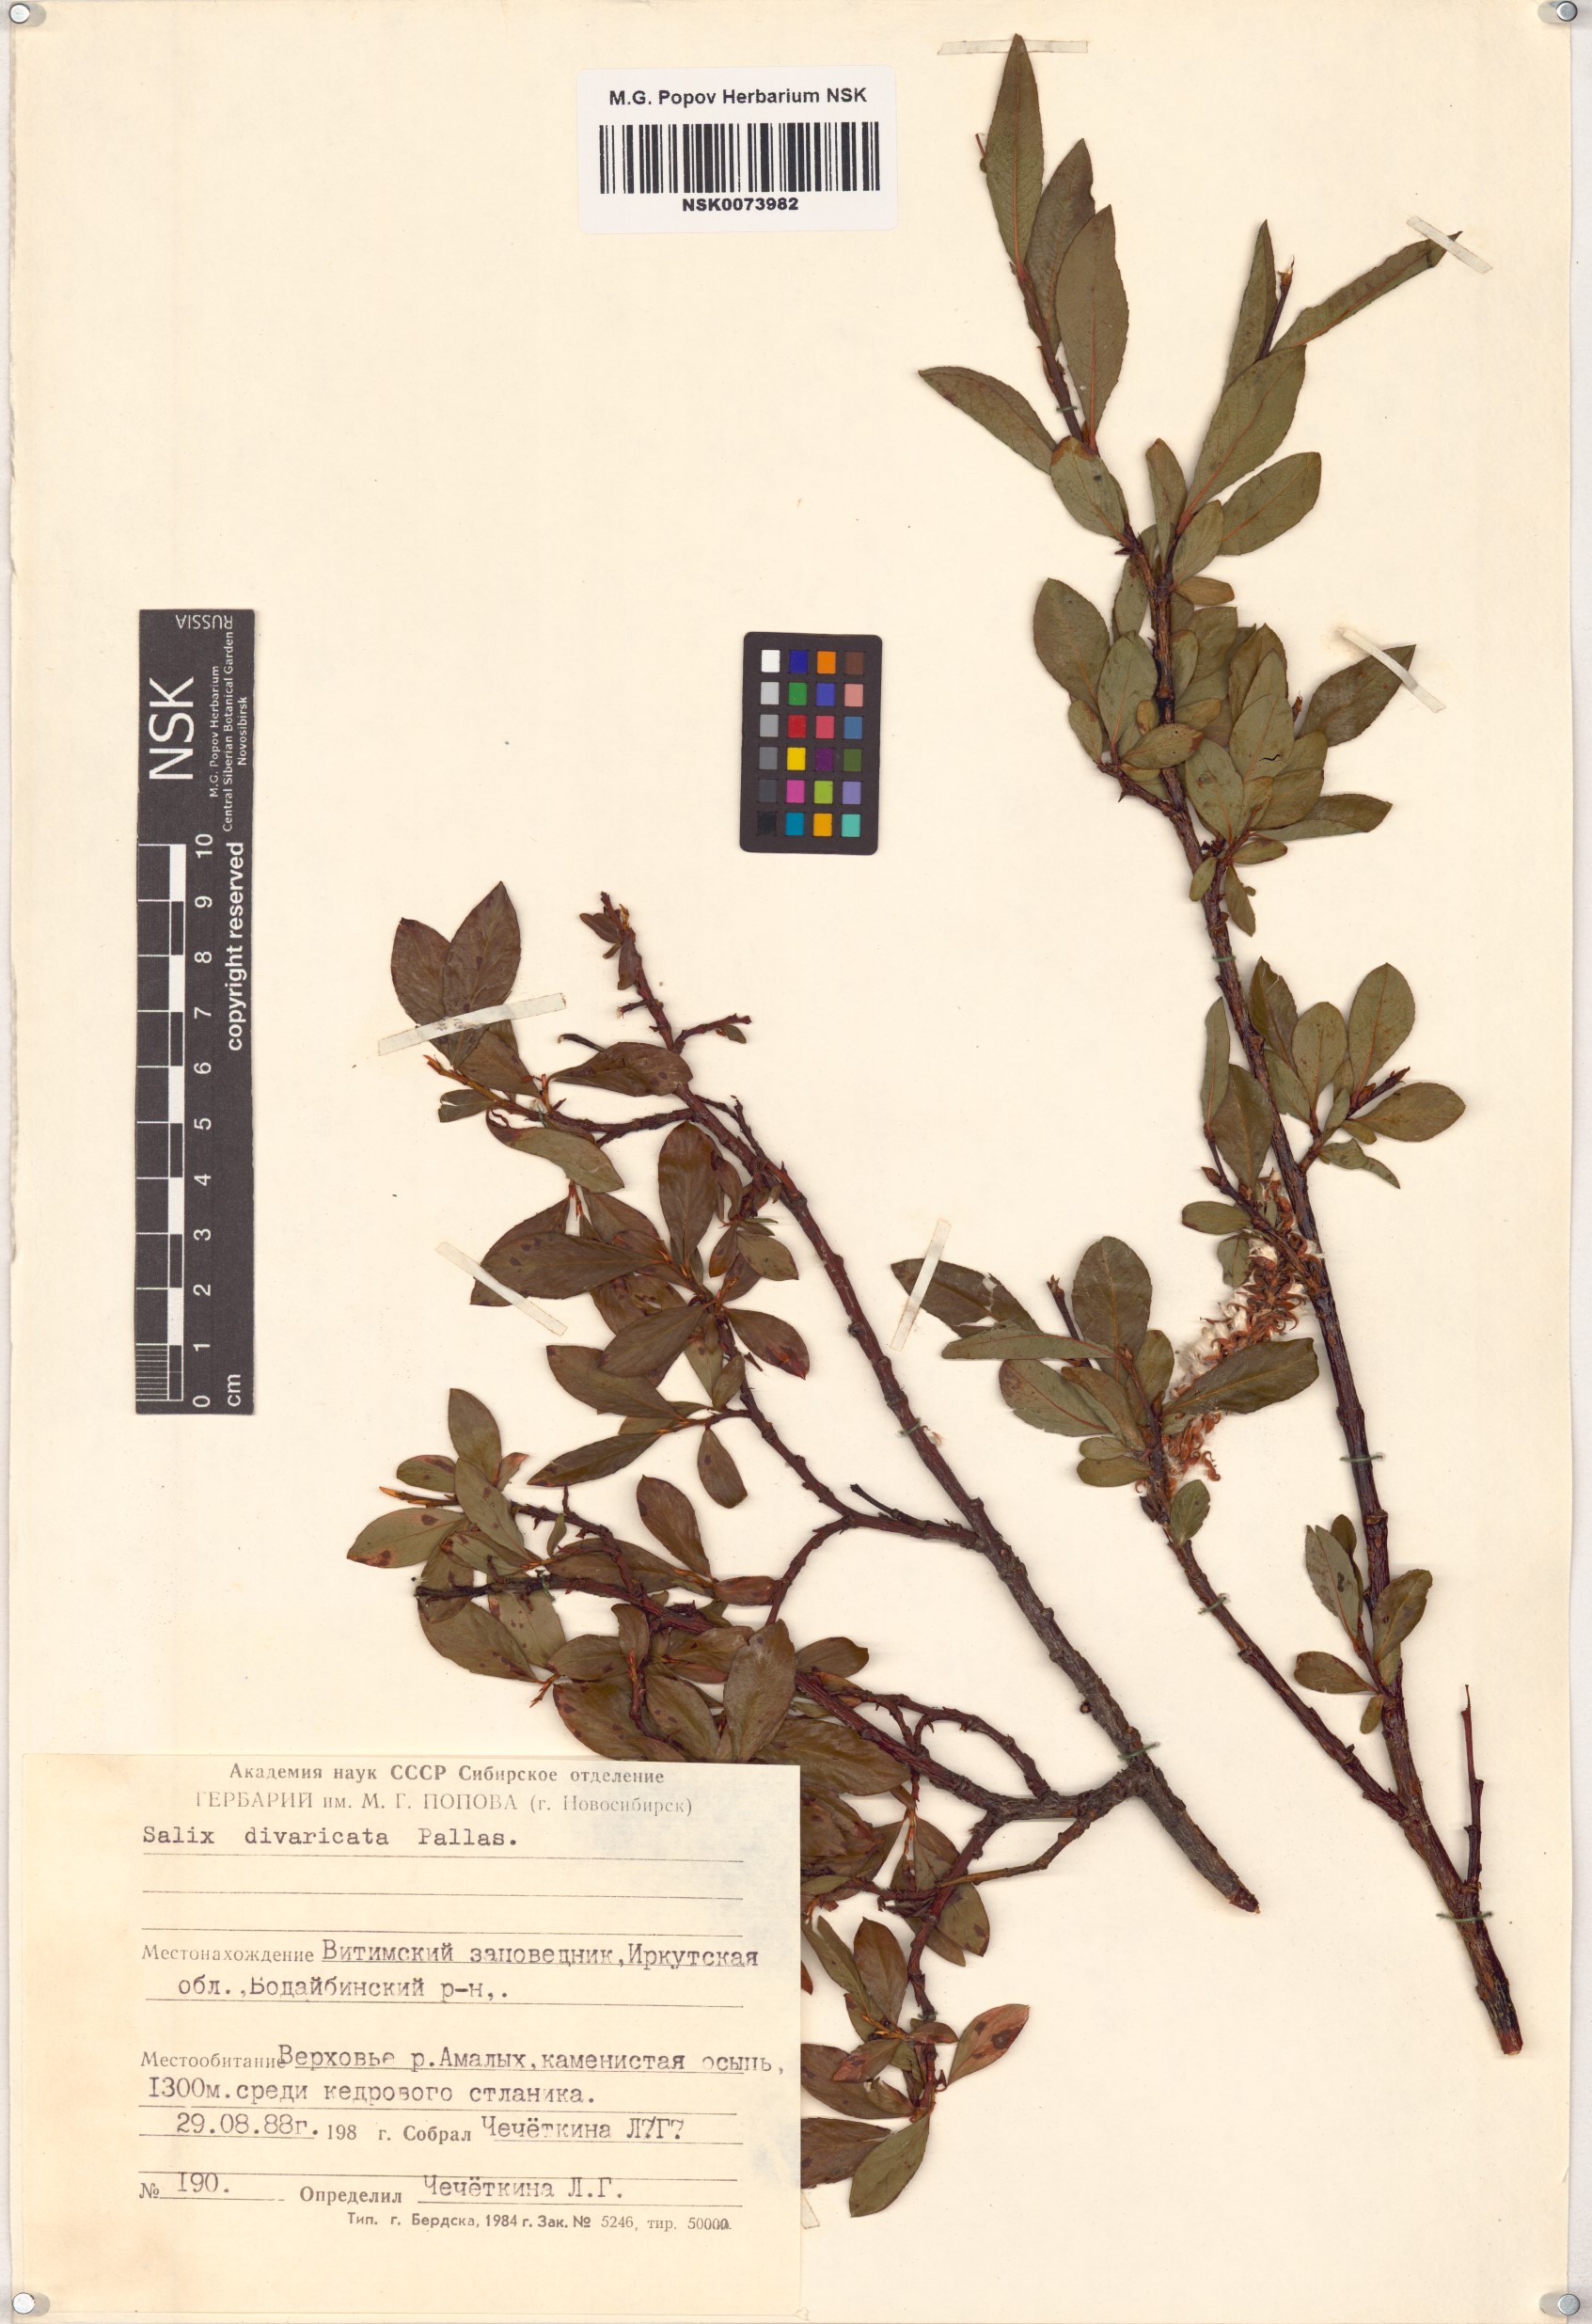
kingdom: Plantae
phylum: Tracheophyta
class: Magnoliopsida
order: Malpighiales
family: Salicaceae
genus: Salix
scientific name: Salix divaricata
